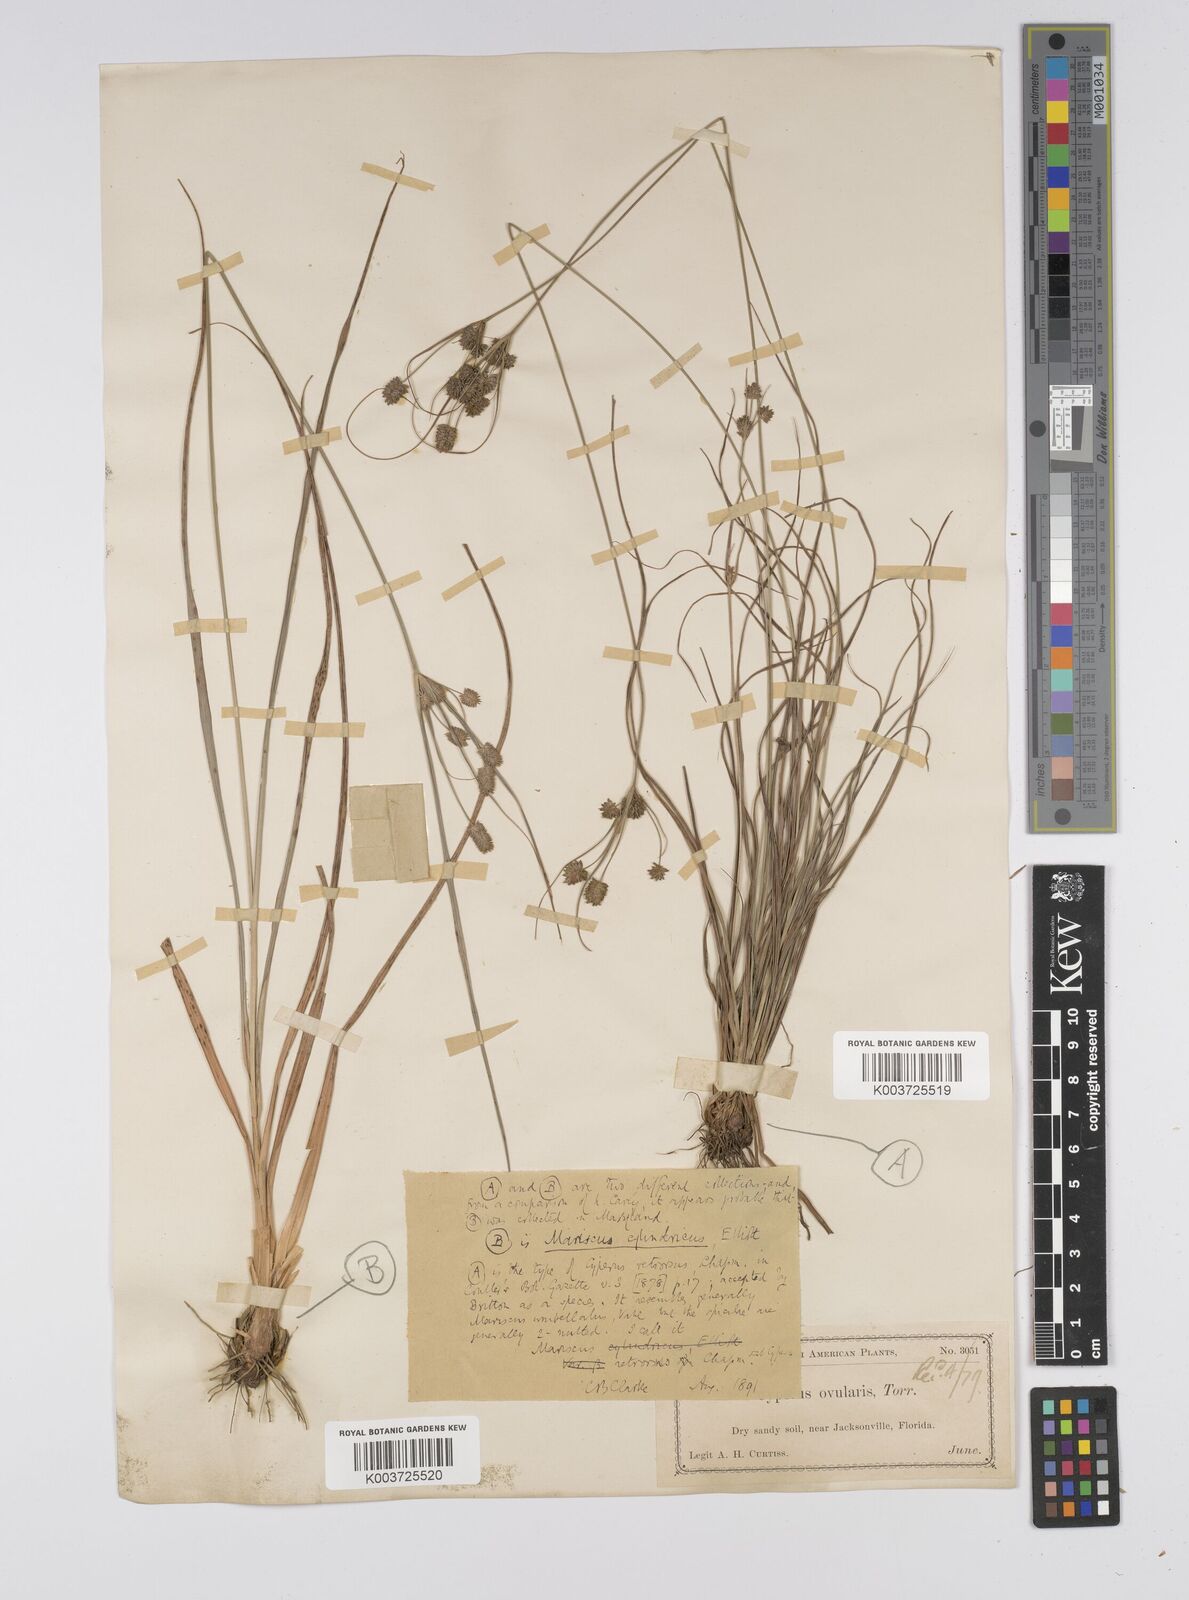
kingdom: Plantae
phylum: Tracheophyta
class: Liliopsida
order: Poales
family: Cyperaceae
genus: Cyperus
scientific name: Cyperus retrorsus
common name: Pinebarren flat sedge
